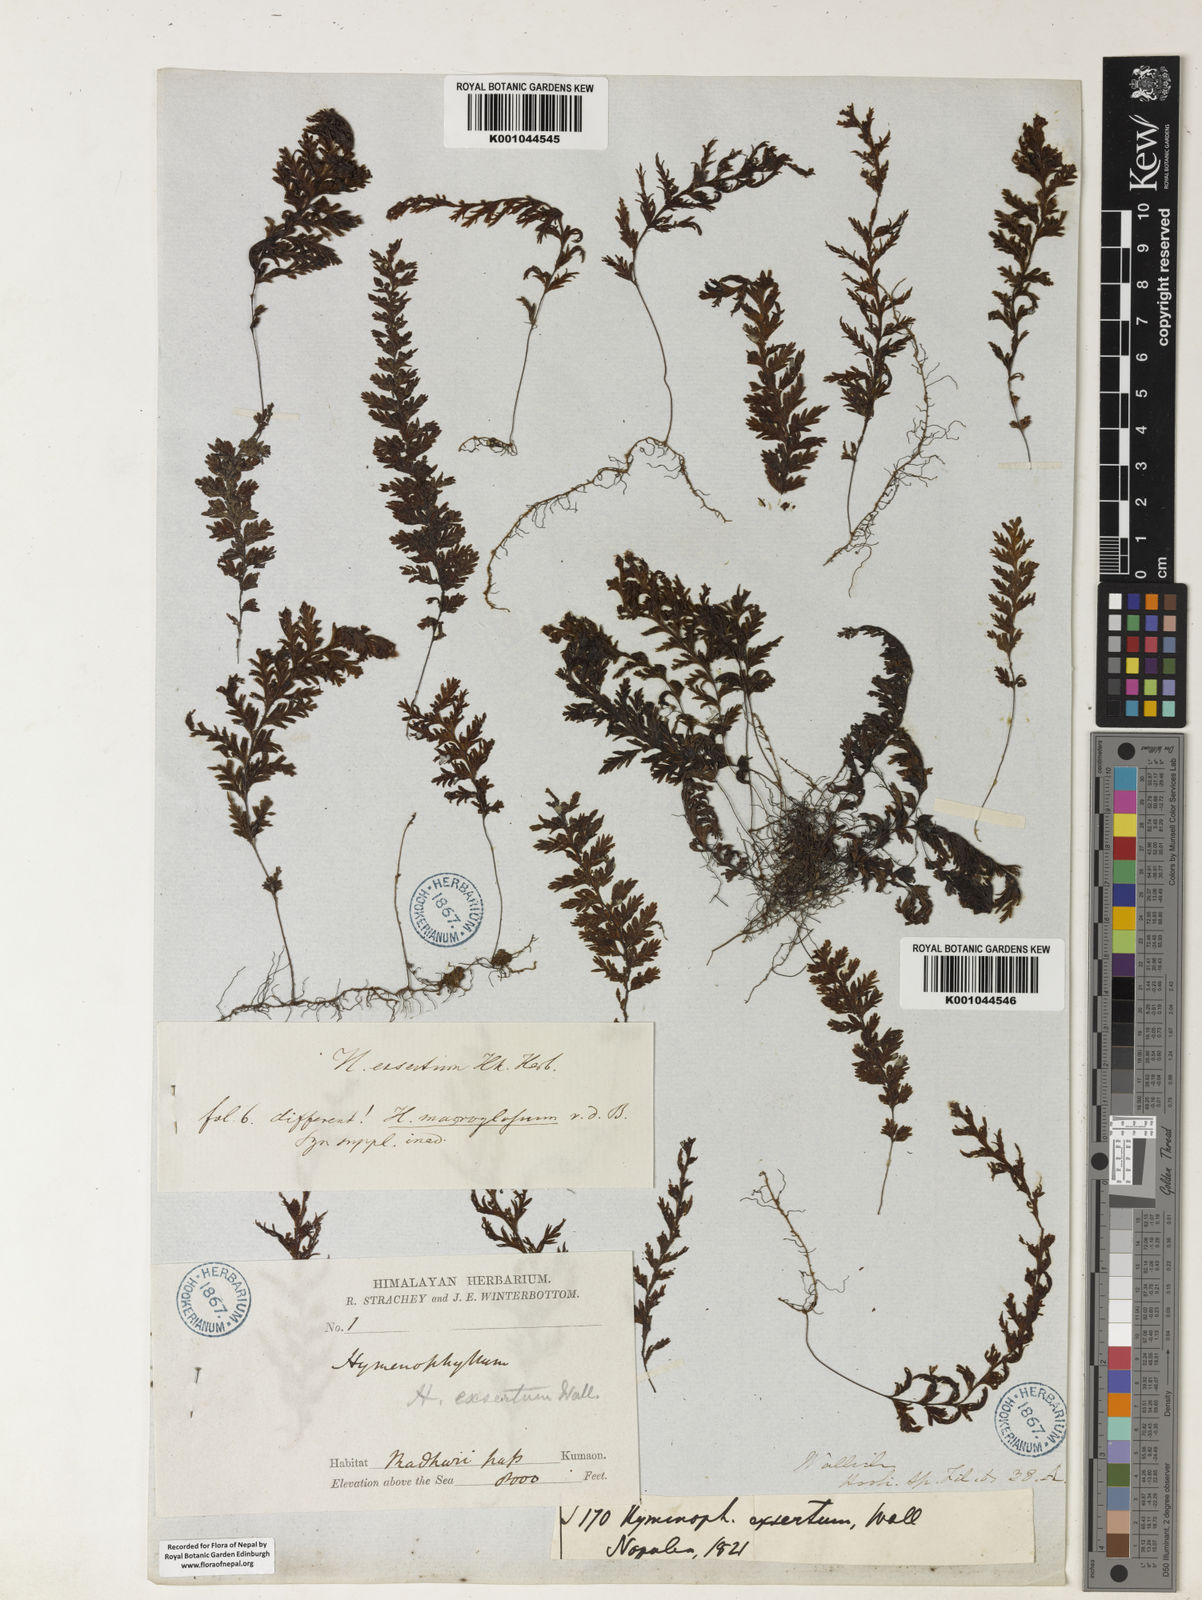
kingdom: Plantae
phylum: Tracheophyta
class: Polypodiopsida
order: Hymenophyllales
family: Hymenophyllaceae
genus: Hymenophyllum
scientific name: Hymenophyllum exsertum
